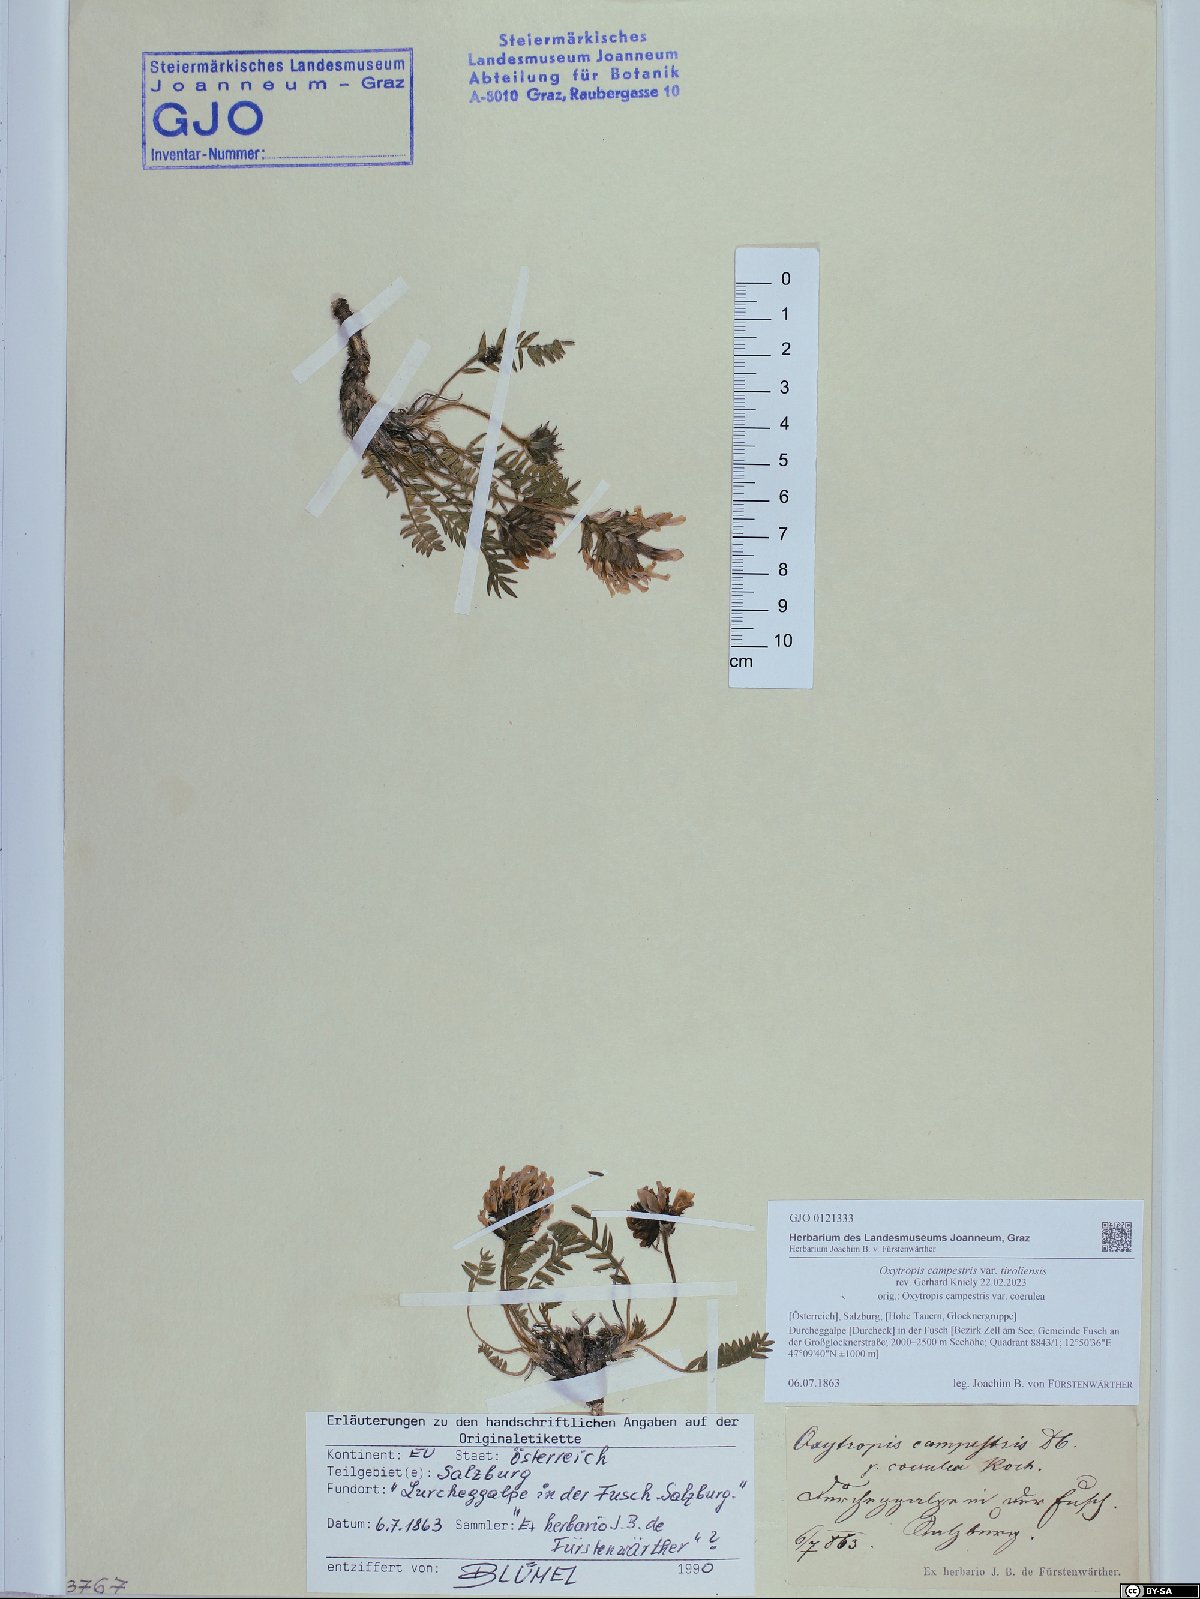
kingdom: Plantae
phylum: Tracheophyta
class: Magnoliopsida
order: Fabales
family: Fabaceae
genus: Oxytropis
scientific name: Oxytropis campestris
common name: Field locoweed
